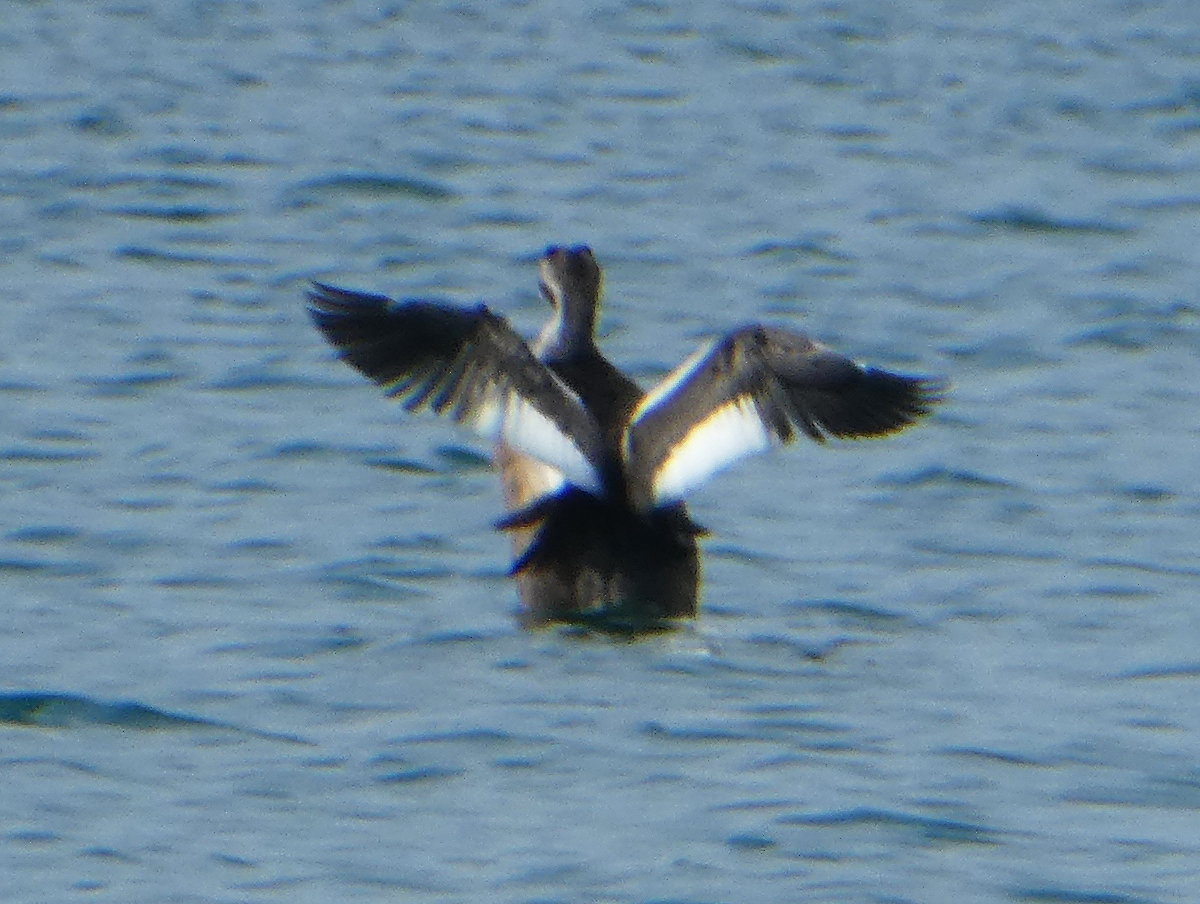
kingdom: Animalia
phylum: Chordata
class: Aves
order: Podicipediformes
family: Podicipedidae
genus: Podiceps
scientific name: Podiceps cristatus
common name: Great crested grebe
